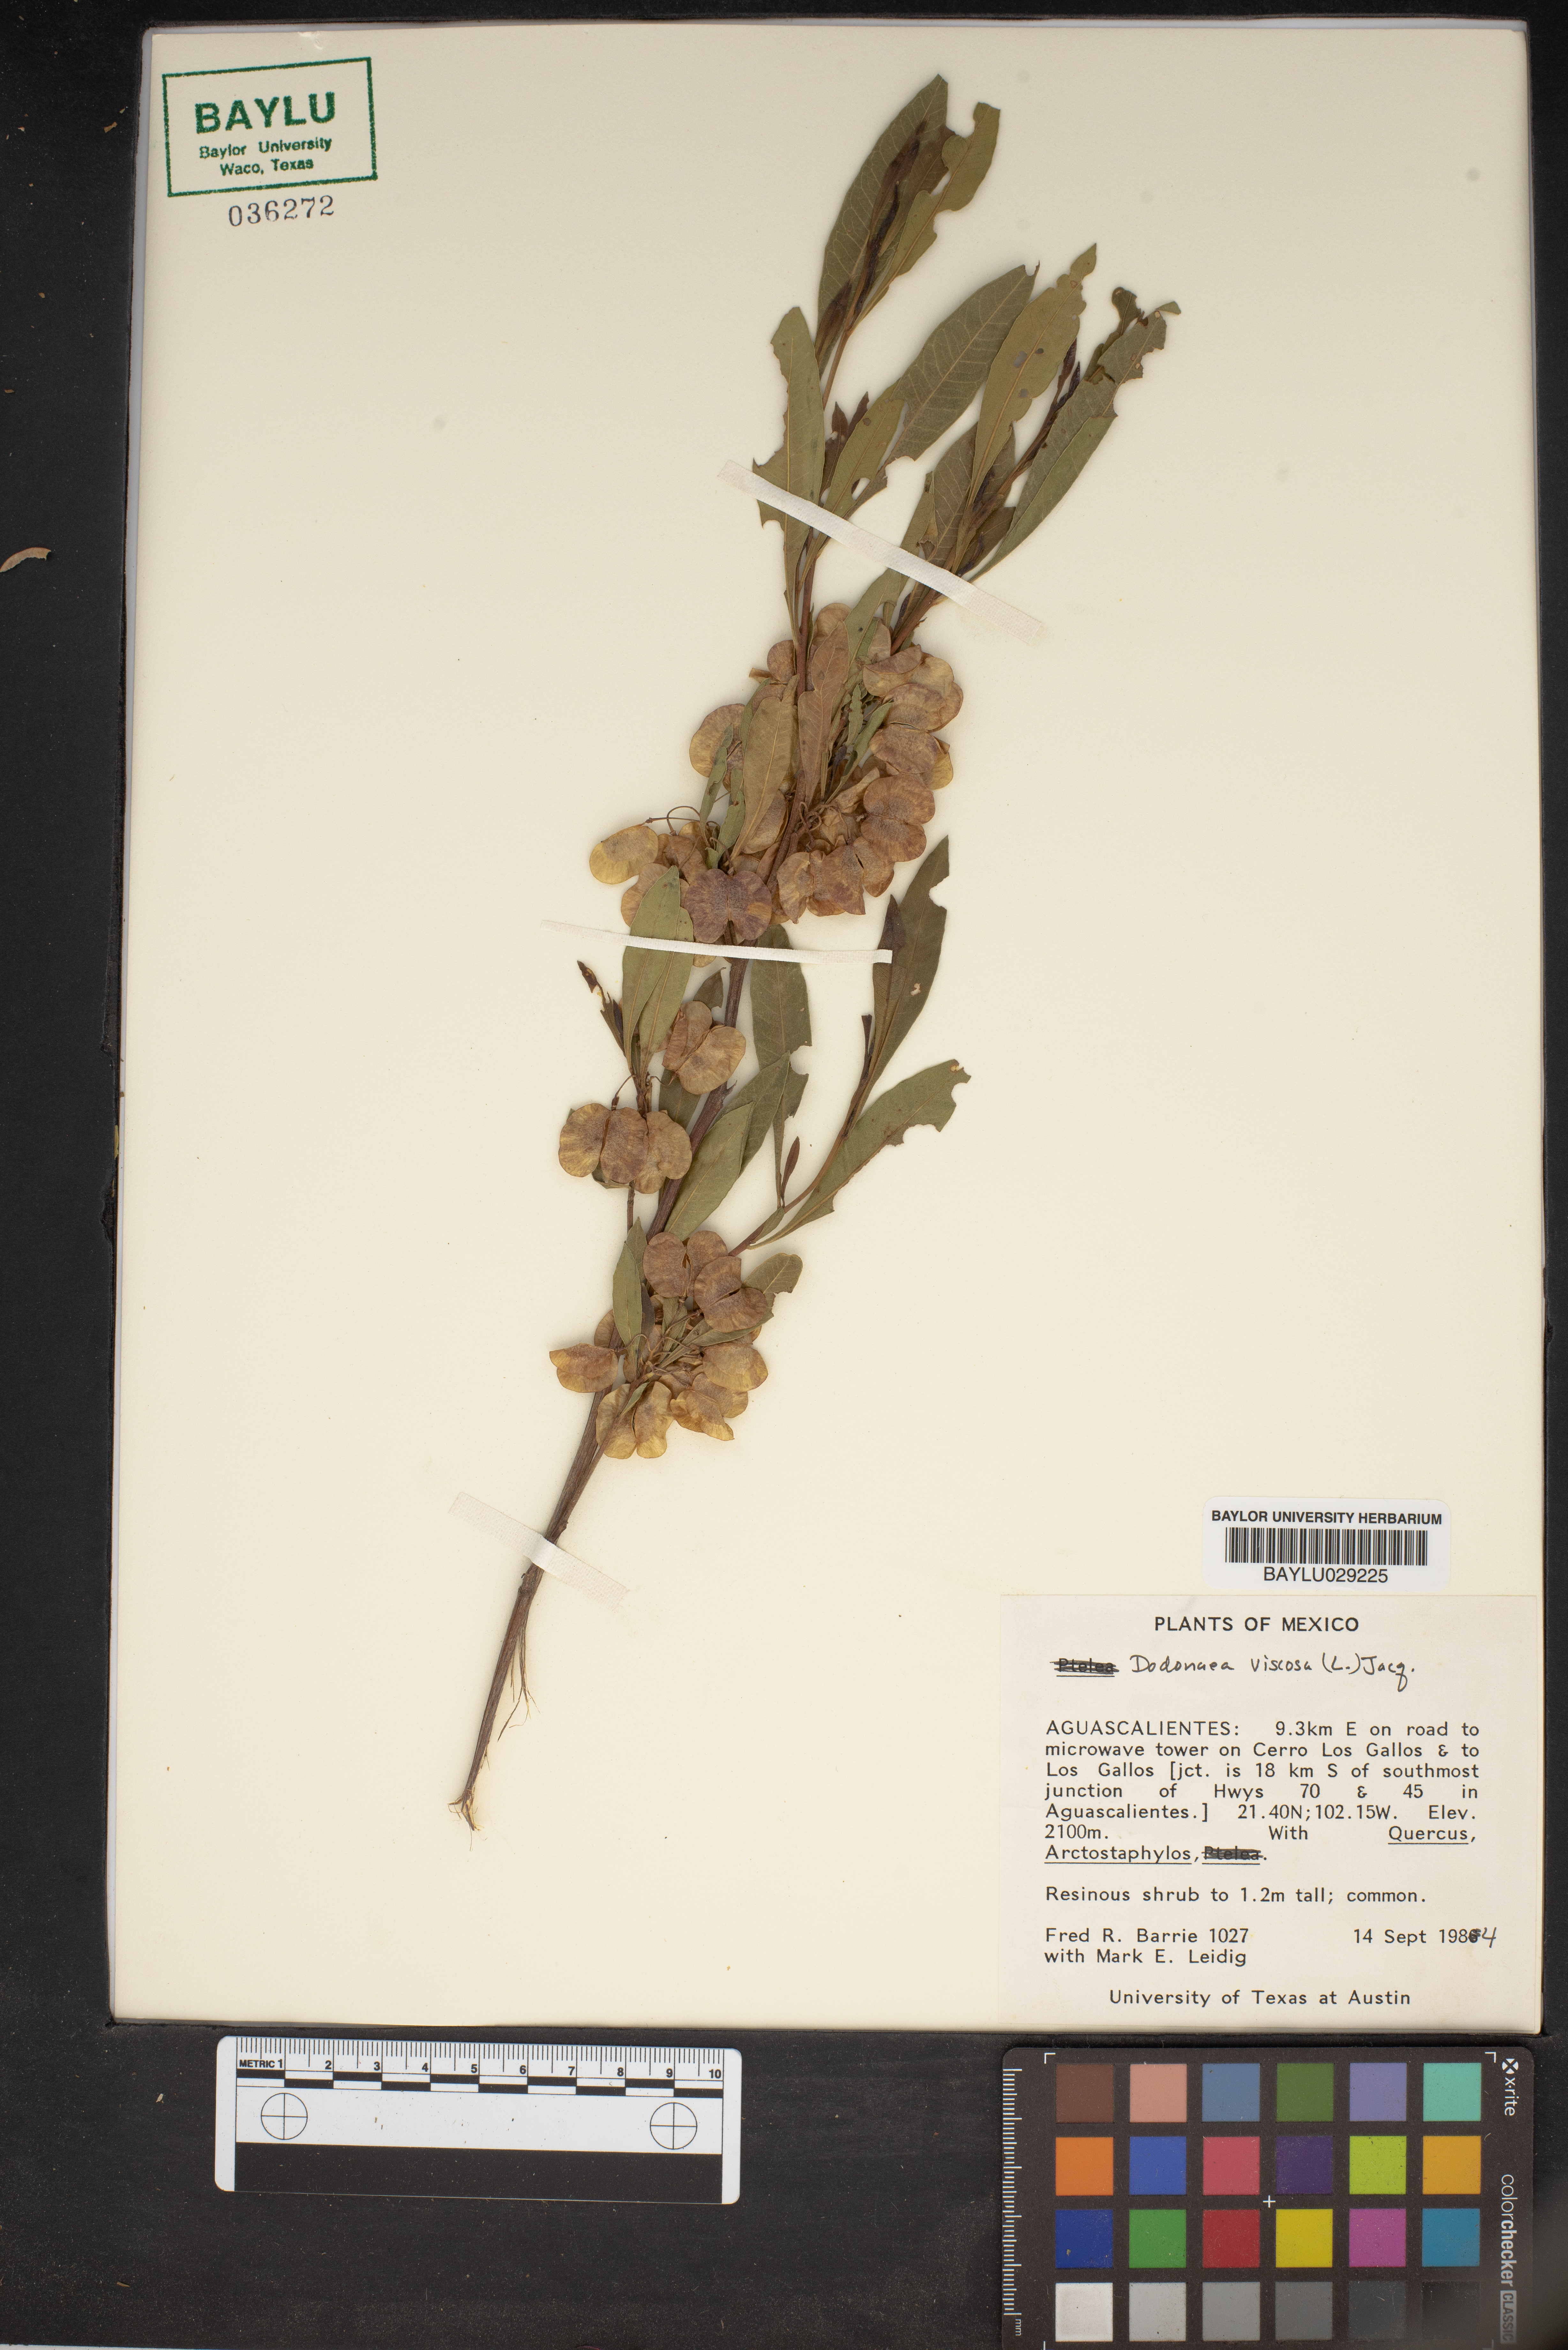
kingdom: Plantae
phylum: Tracheophyta
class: Magnoliopsida
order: Sapindales
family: Sapindaceae
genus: Dodonaea
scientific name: Dodonaea viscosa
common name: Hopbush
